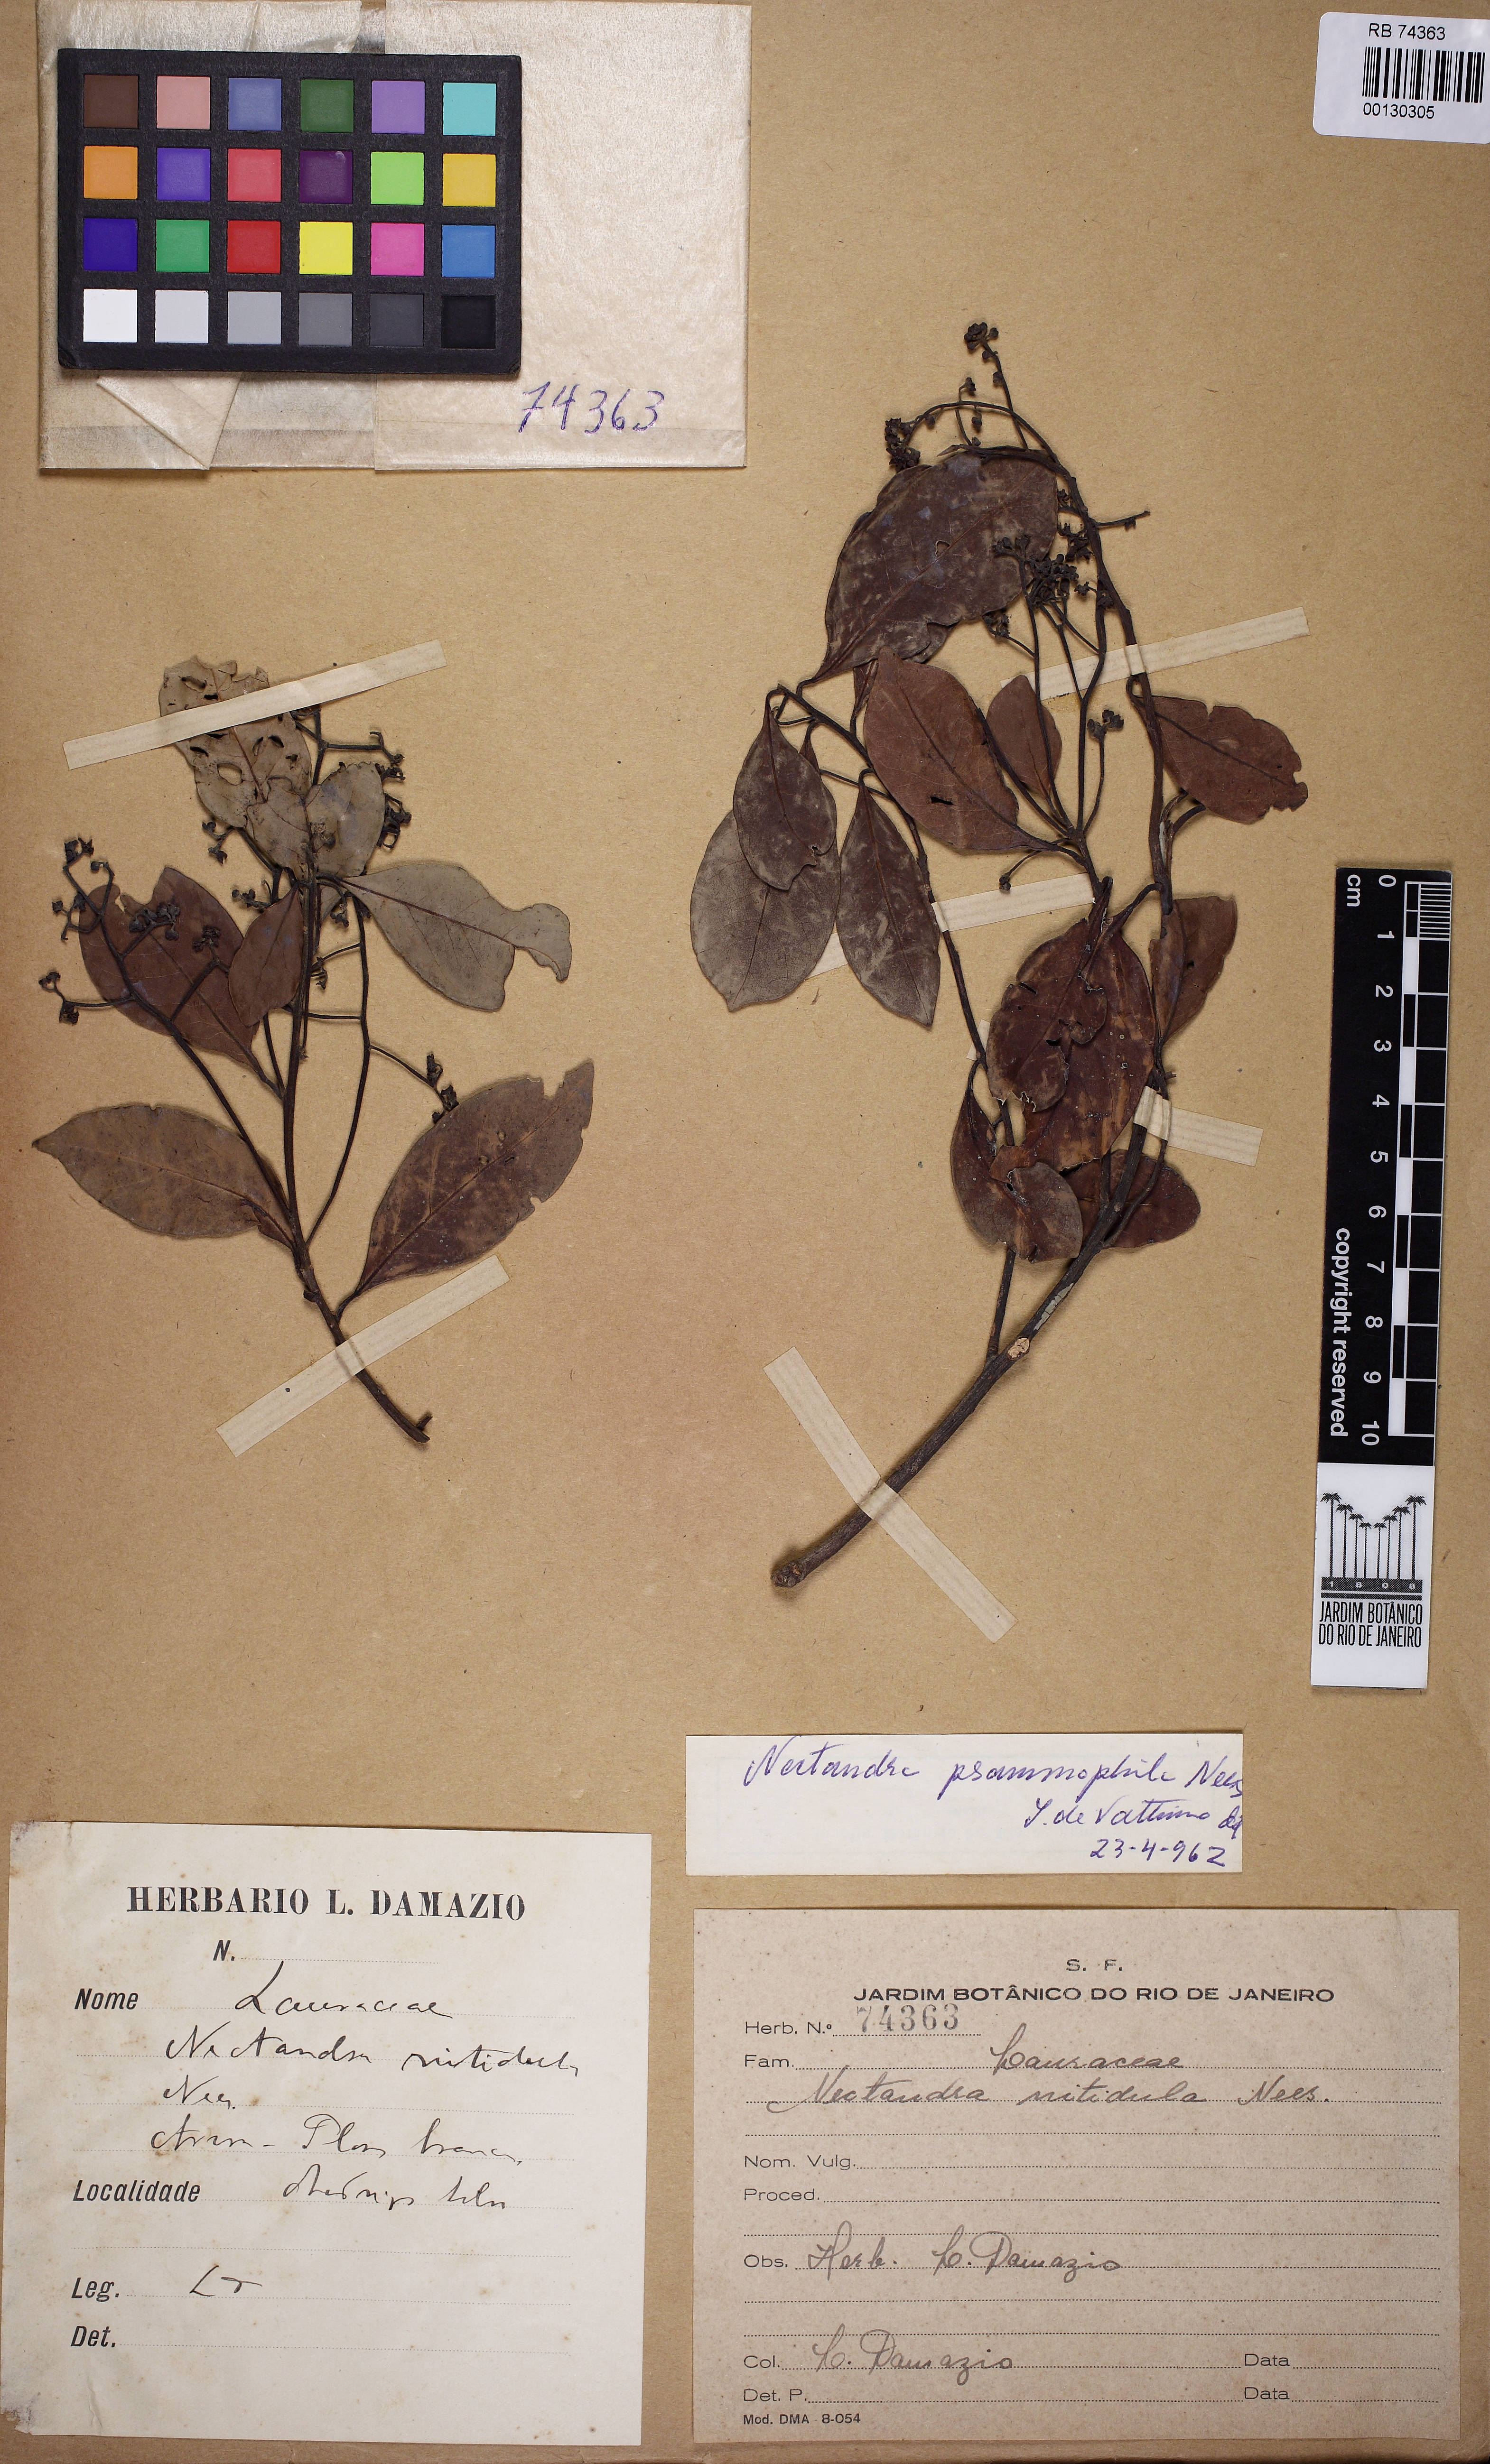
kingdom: Plantae
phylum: Tracheophyta
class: Magnoliopsida
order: Laurales
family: Lauraceae
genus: Nectandra
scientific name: Nectandra psammophila
